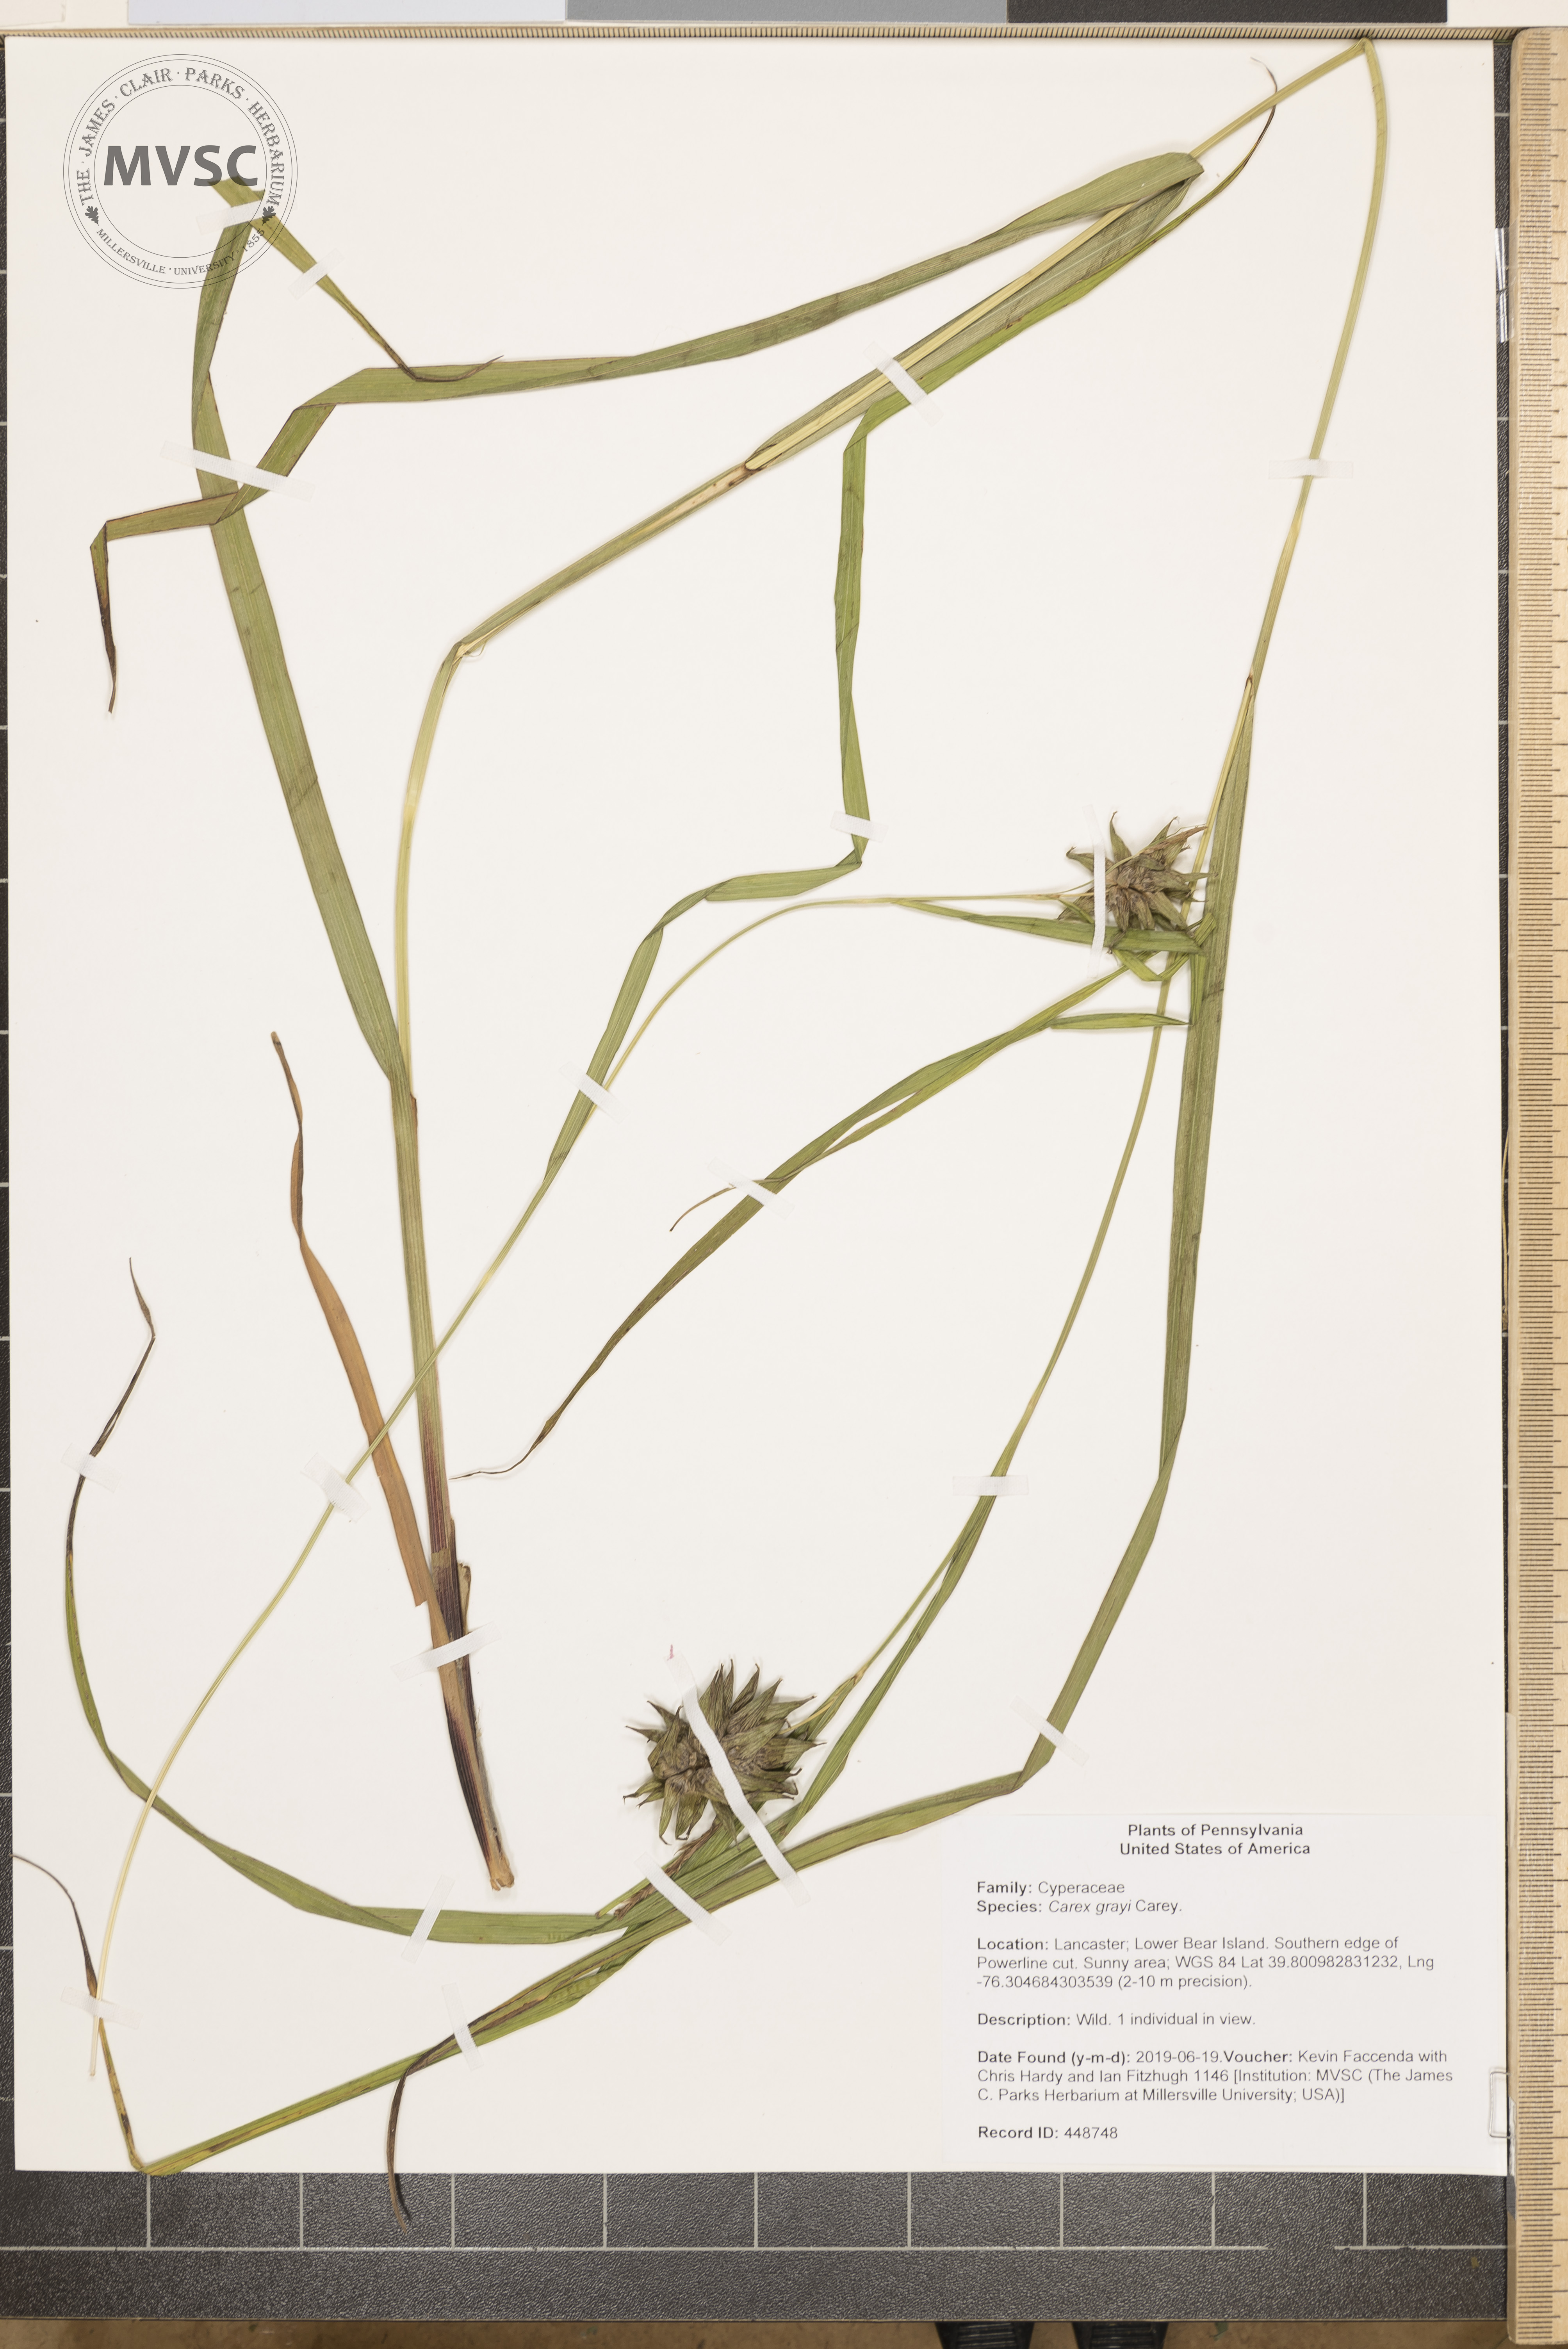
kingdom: Plantae
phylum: Tracheophyta
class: Liliopsida
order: Poales
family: Cyperaceae
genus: Carex
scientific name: Carex grayi
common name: Asa gray's sedge
